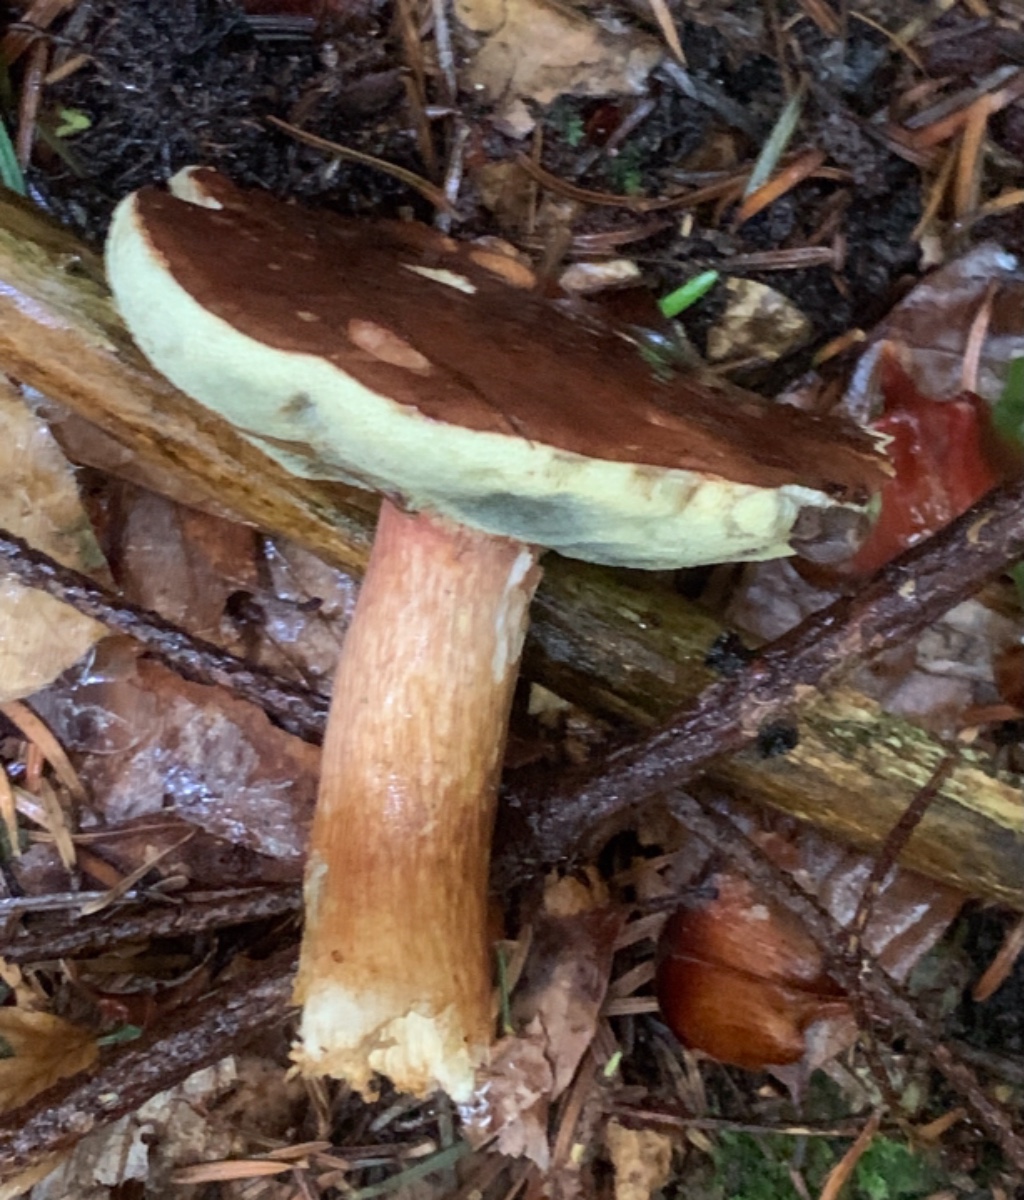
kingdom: Fungi
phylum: Basidiomycota
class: Agaricomycetes
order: Boletales
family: Boletaceae
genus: Imleria
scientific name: Imleria badia
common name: brunstokket rørhat
